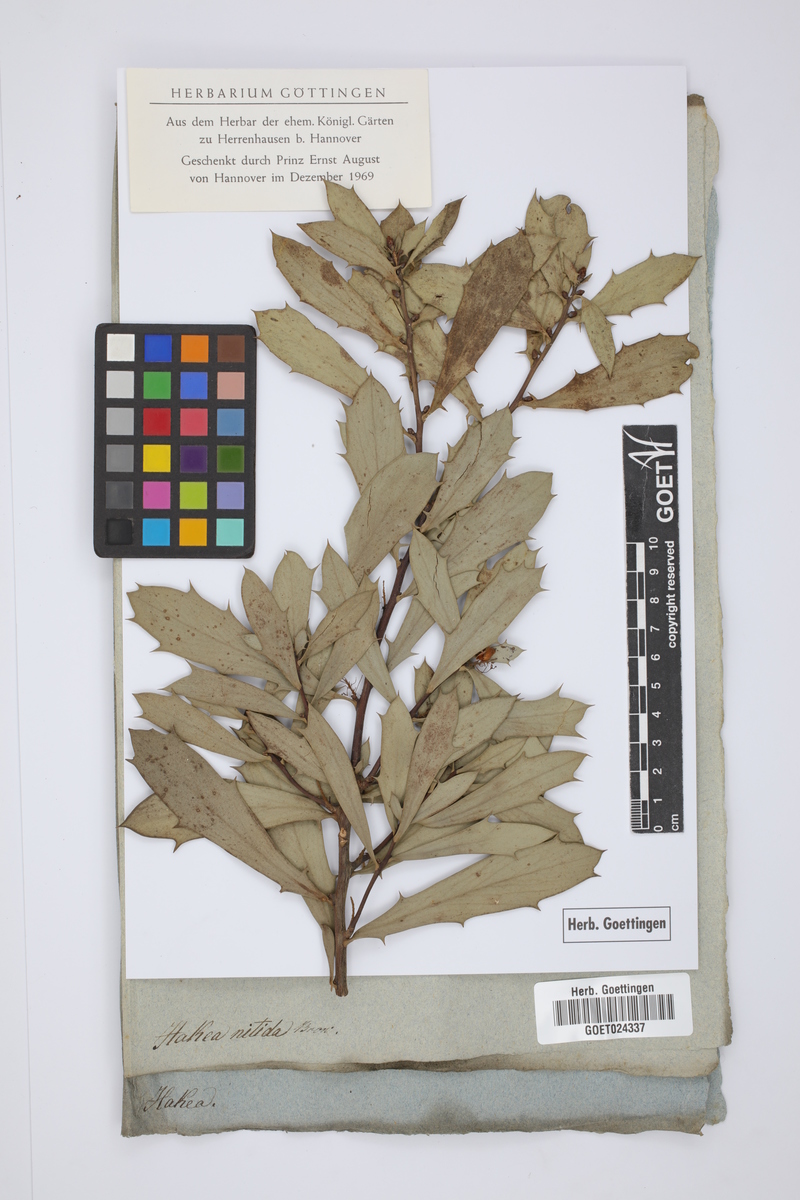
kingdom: Plantae
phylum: Tracheophyta
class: Magnoliopsida
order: Proteales
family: Proteaceae
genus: Hakea
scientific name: Hakea nitida
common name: Frog hakea
